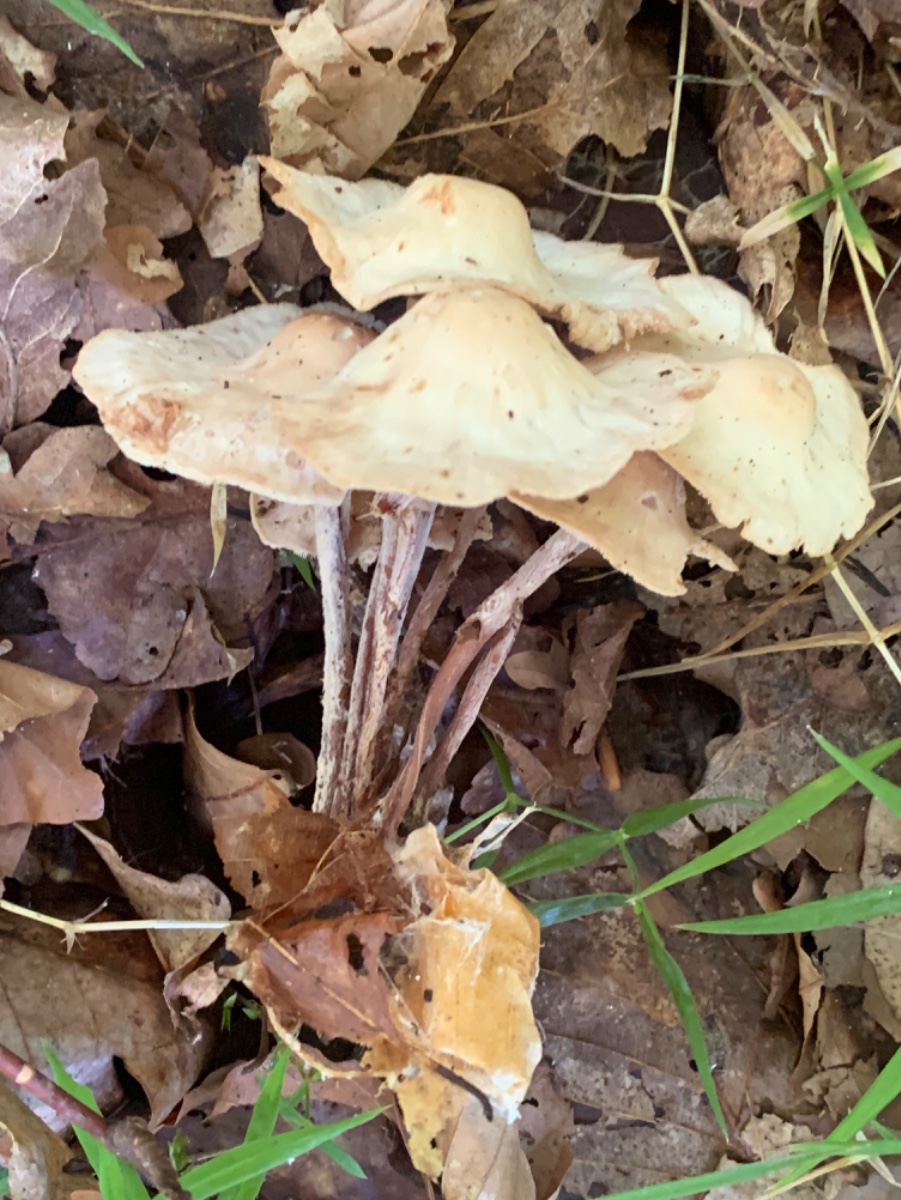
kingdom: Fungi
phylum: Basidiomycota
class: Agaricomycetes
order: Agaricales
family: Omphalotaceae
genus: Collybiopsis
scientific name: Collybiopsis confluens
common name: knippe-fladhat
